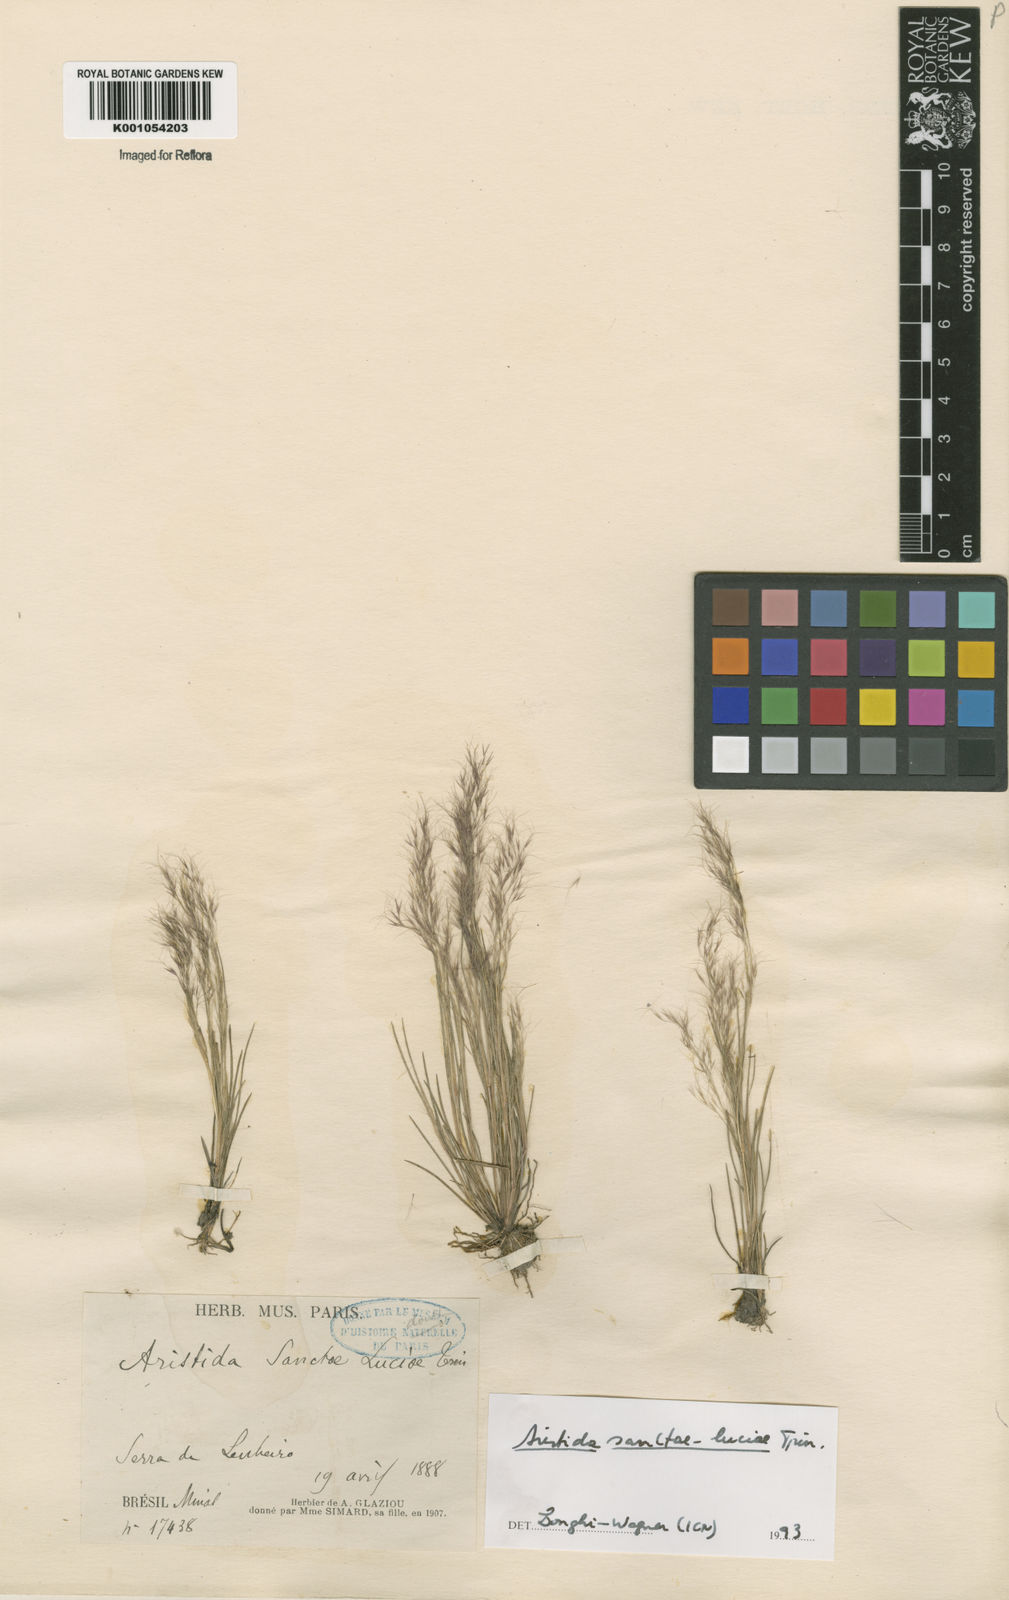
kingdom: Plantae
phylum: Tracheophyta
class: Liliopsida
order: Poales
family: Poaceae
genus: Aristida
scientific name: Aristida capillacea
